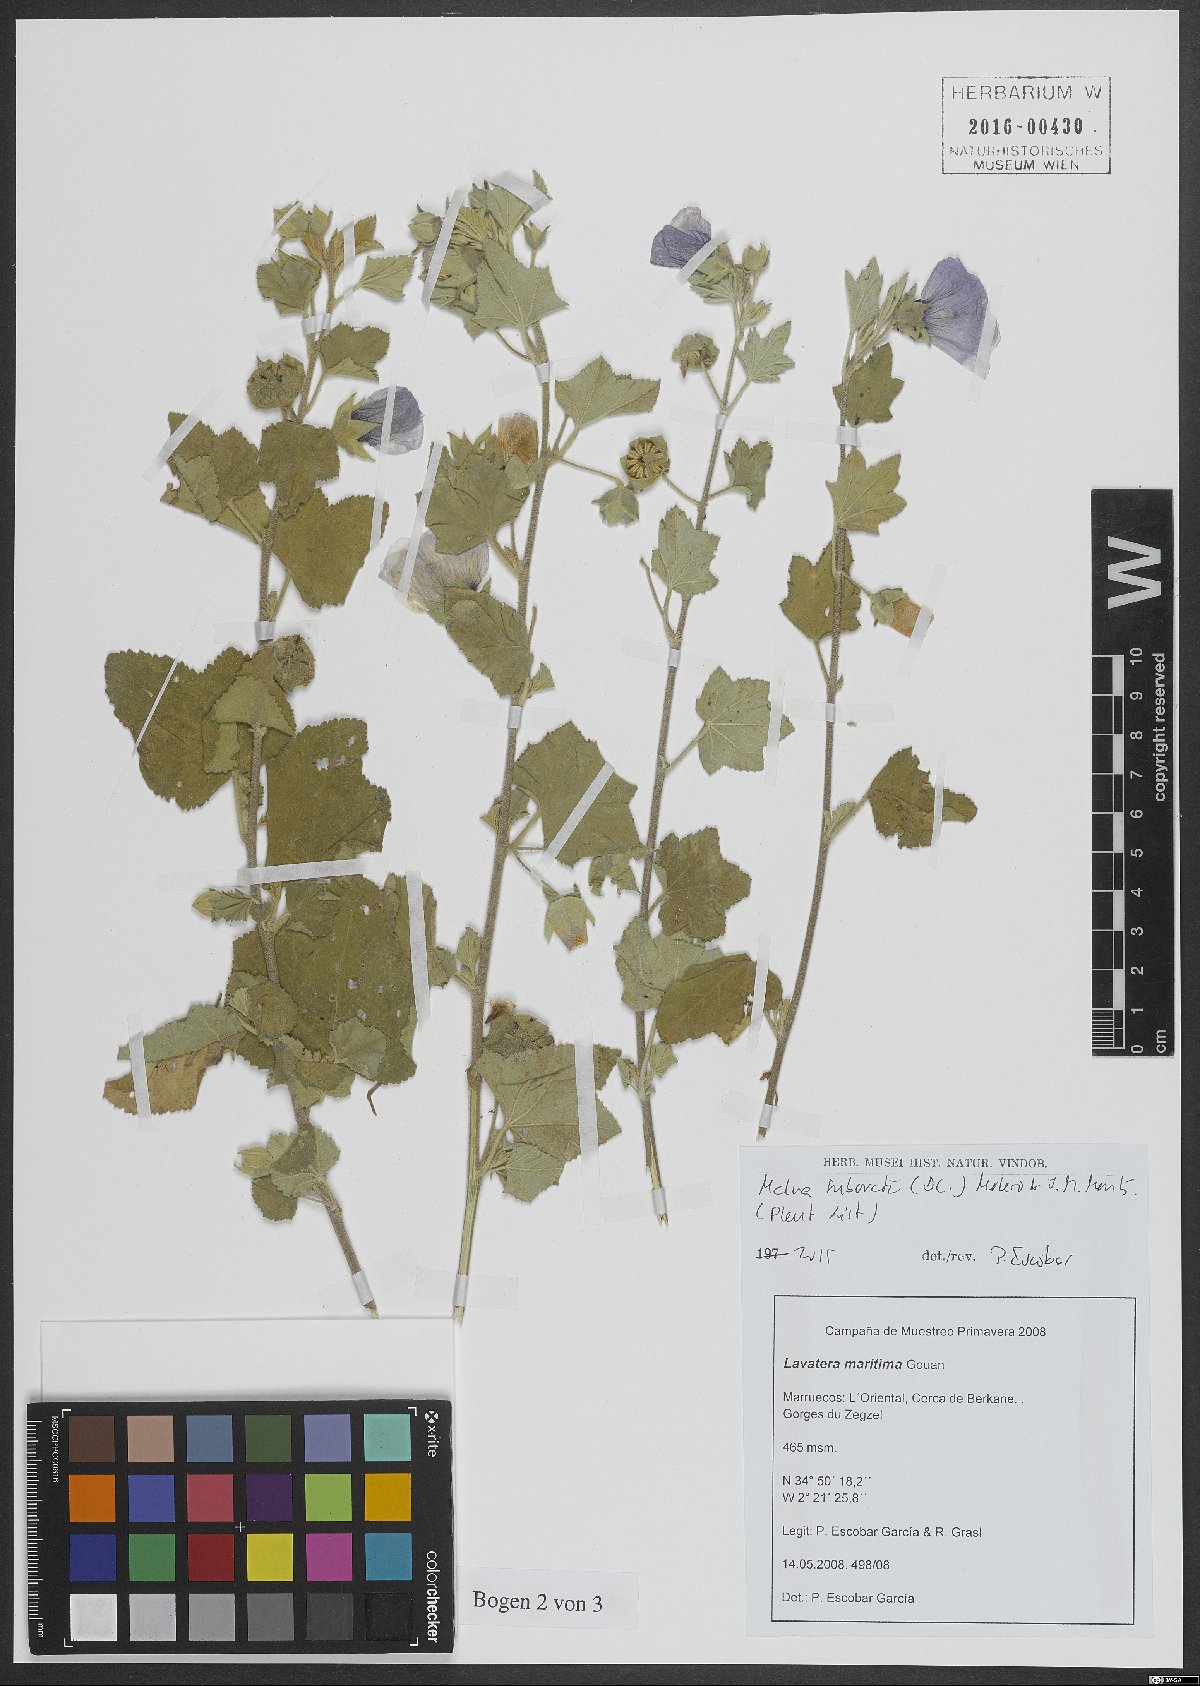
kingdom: Plantae
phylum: Tracheophyta
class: Magnoliopsida
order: Malvales
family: Malvaceae
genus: Malva
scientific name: Malva subovata
